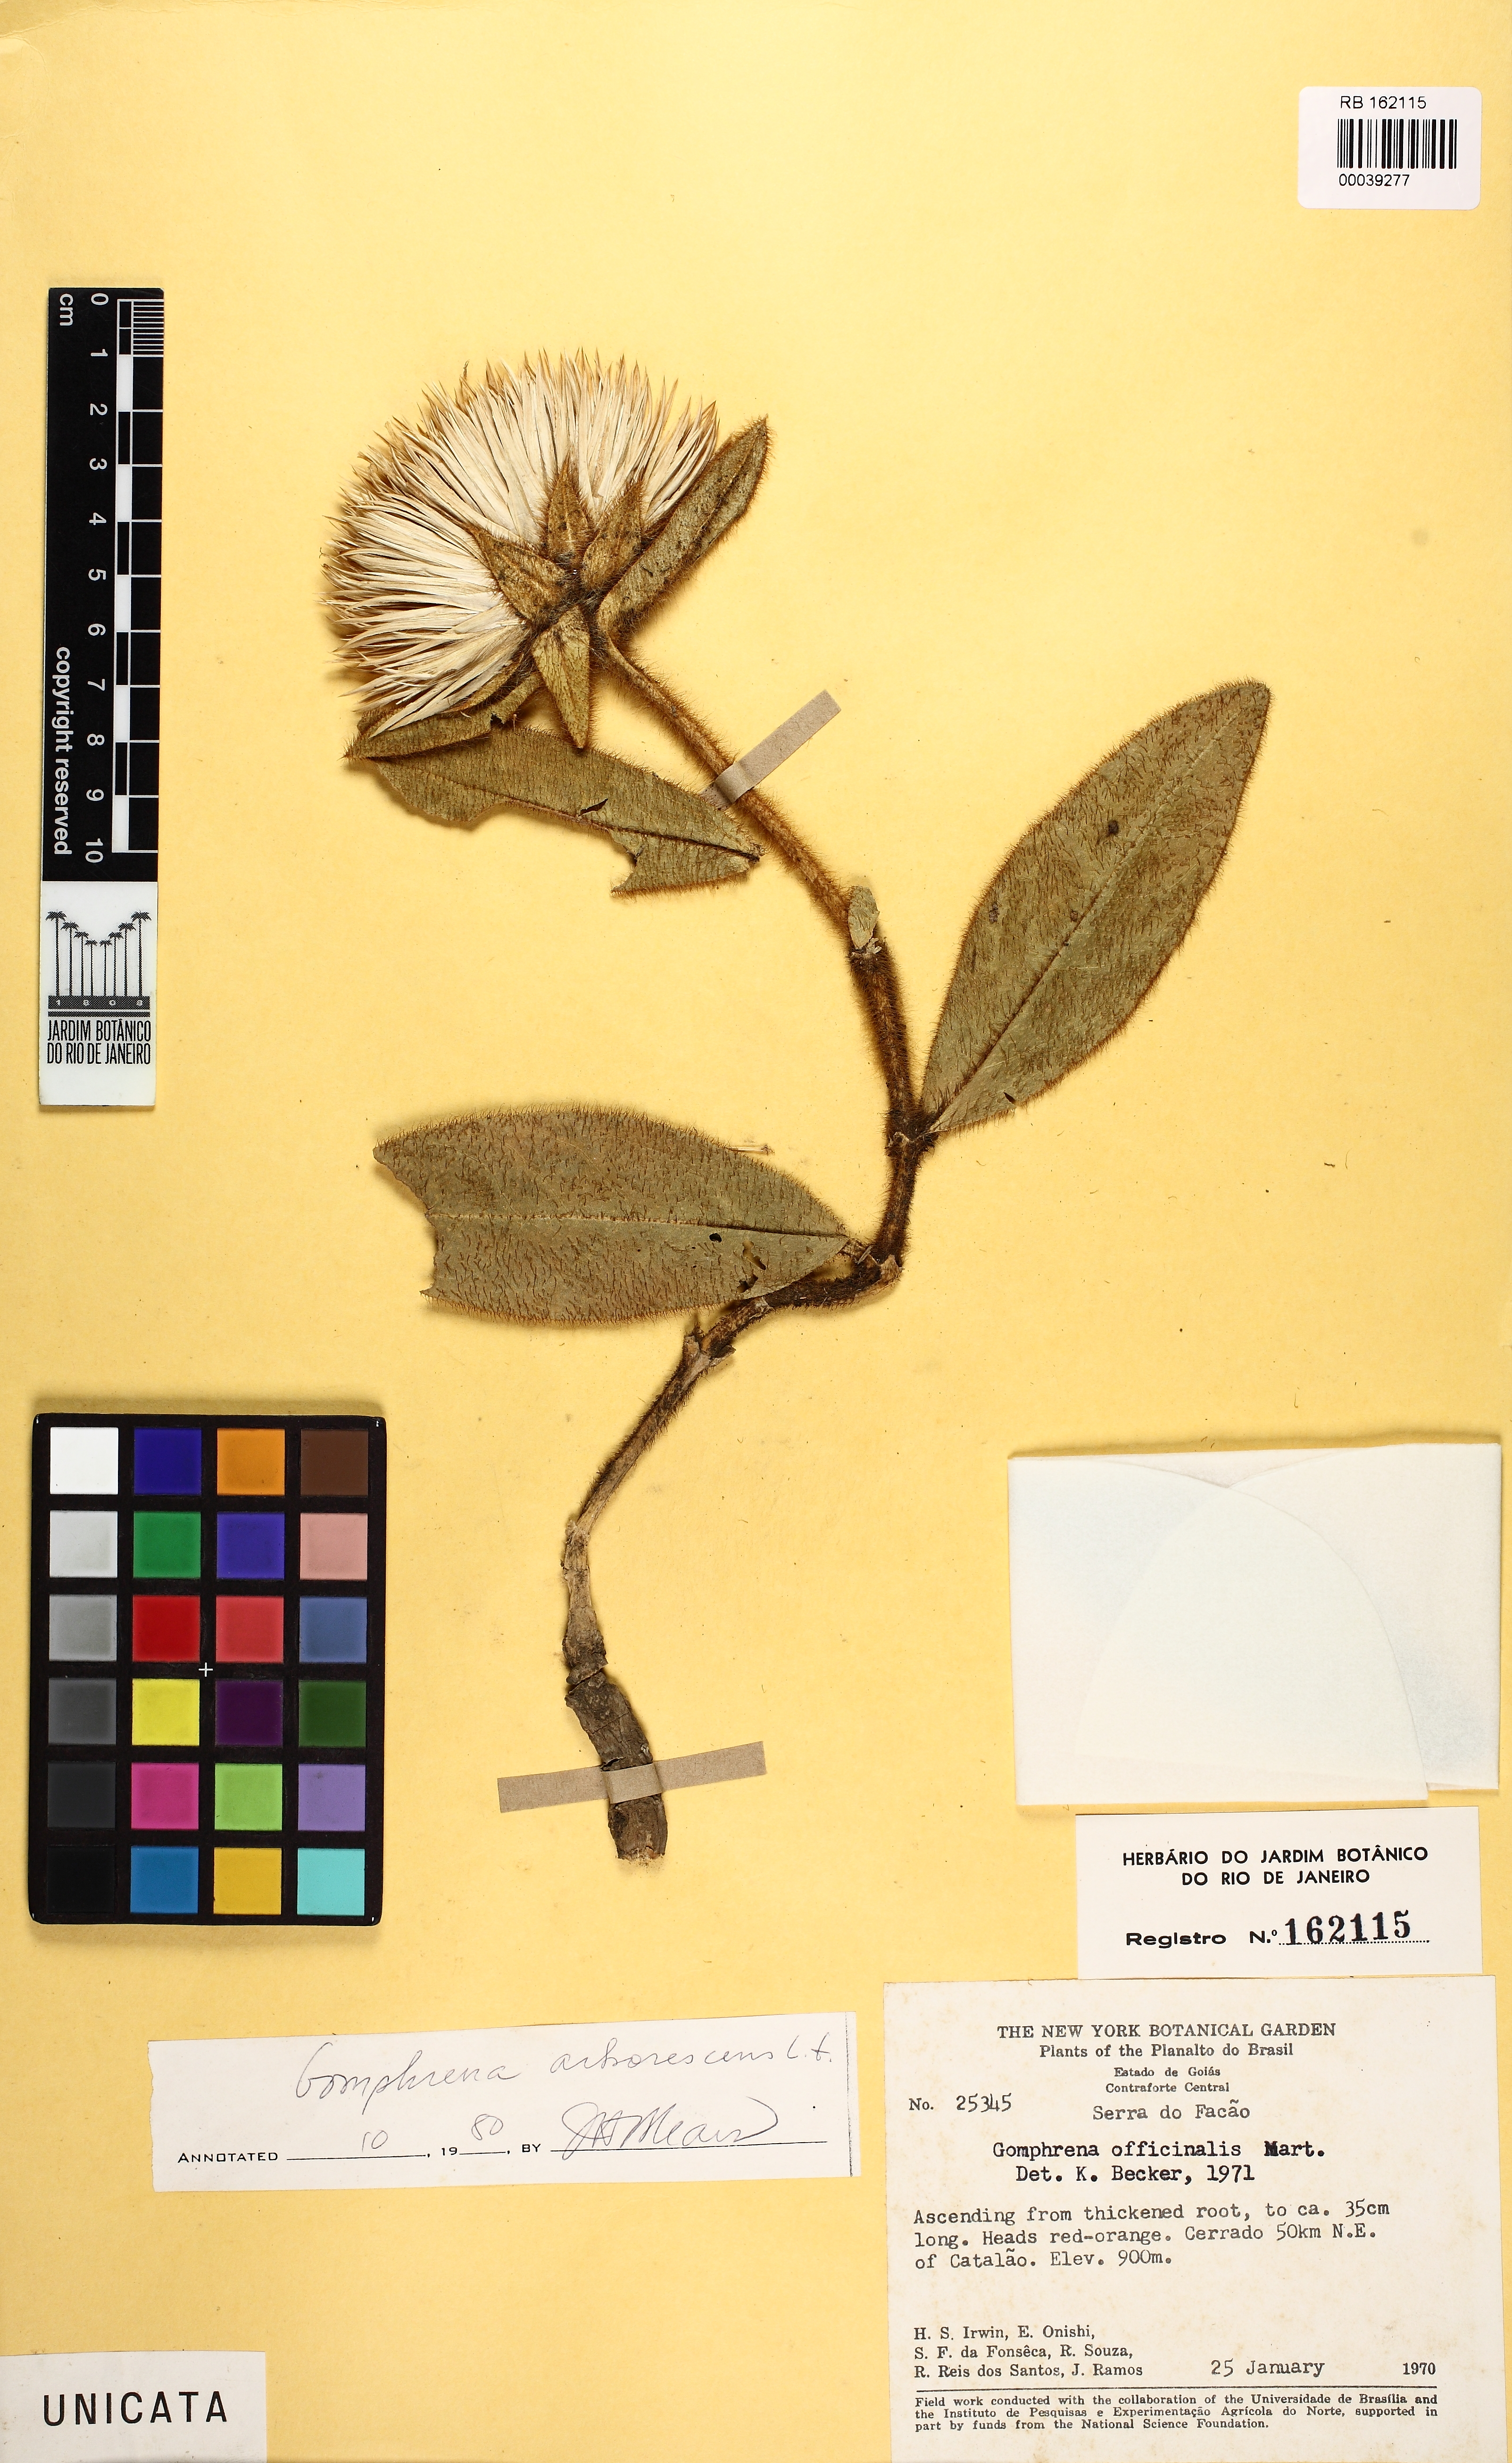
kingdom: Plantae
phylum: Tracheophyta
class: Magnoliopsida
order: Caryophyllales
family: Amaranthaceae
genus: Gomphrena
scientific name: Gomphrena arborescens
